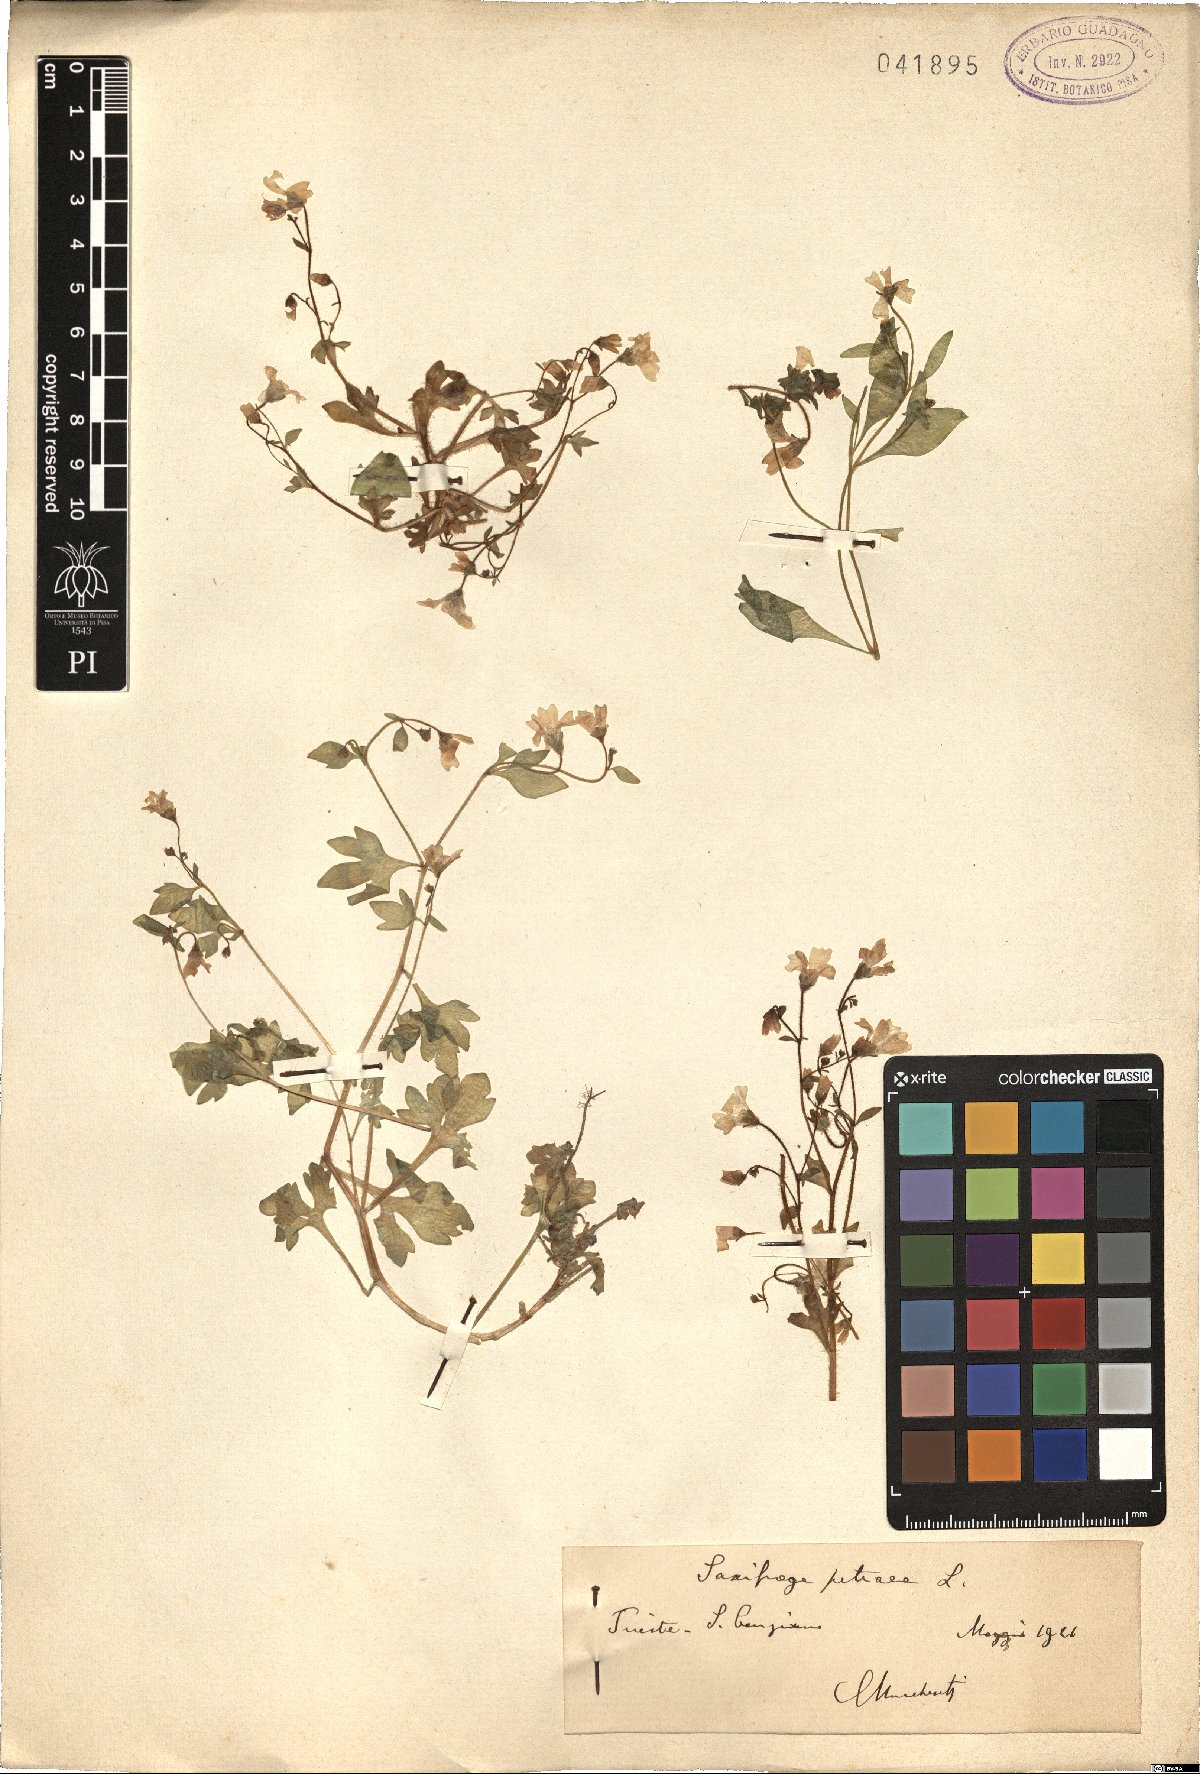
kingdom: Plantae
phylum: Tracheophyta
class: Magnoliopsida
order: Saxifragales
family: Saxifragaceae
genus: Saxifraga
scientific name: Saxifraga petraea
